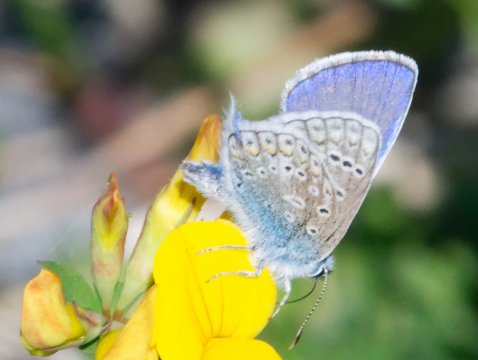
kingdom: Animalia
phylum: Arthropoda
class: Insecta
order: Lepidoptera
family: Lycaenidae
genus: Polyommatus
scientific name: Polyommatus icarus
